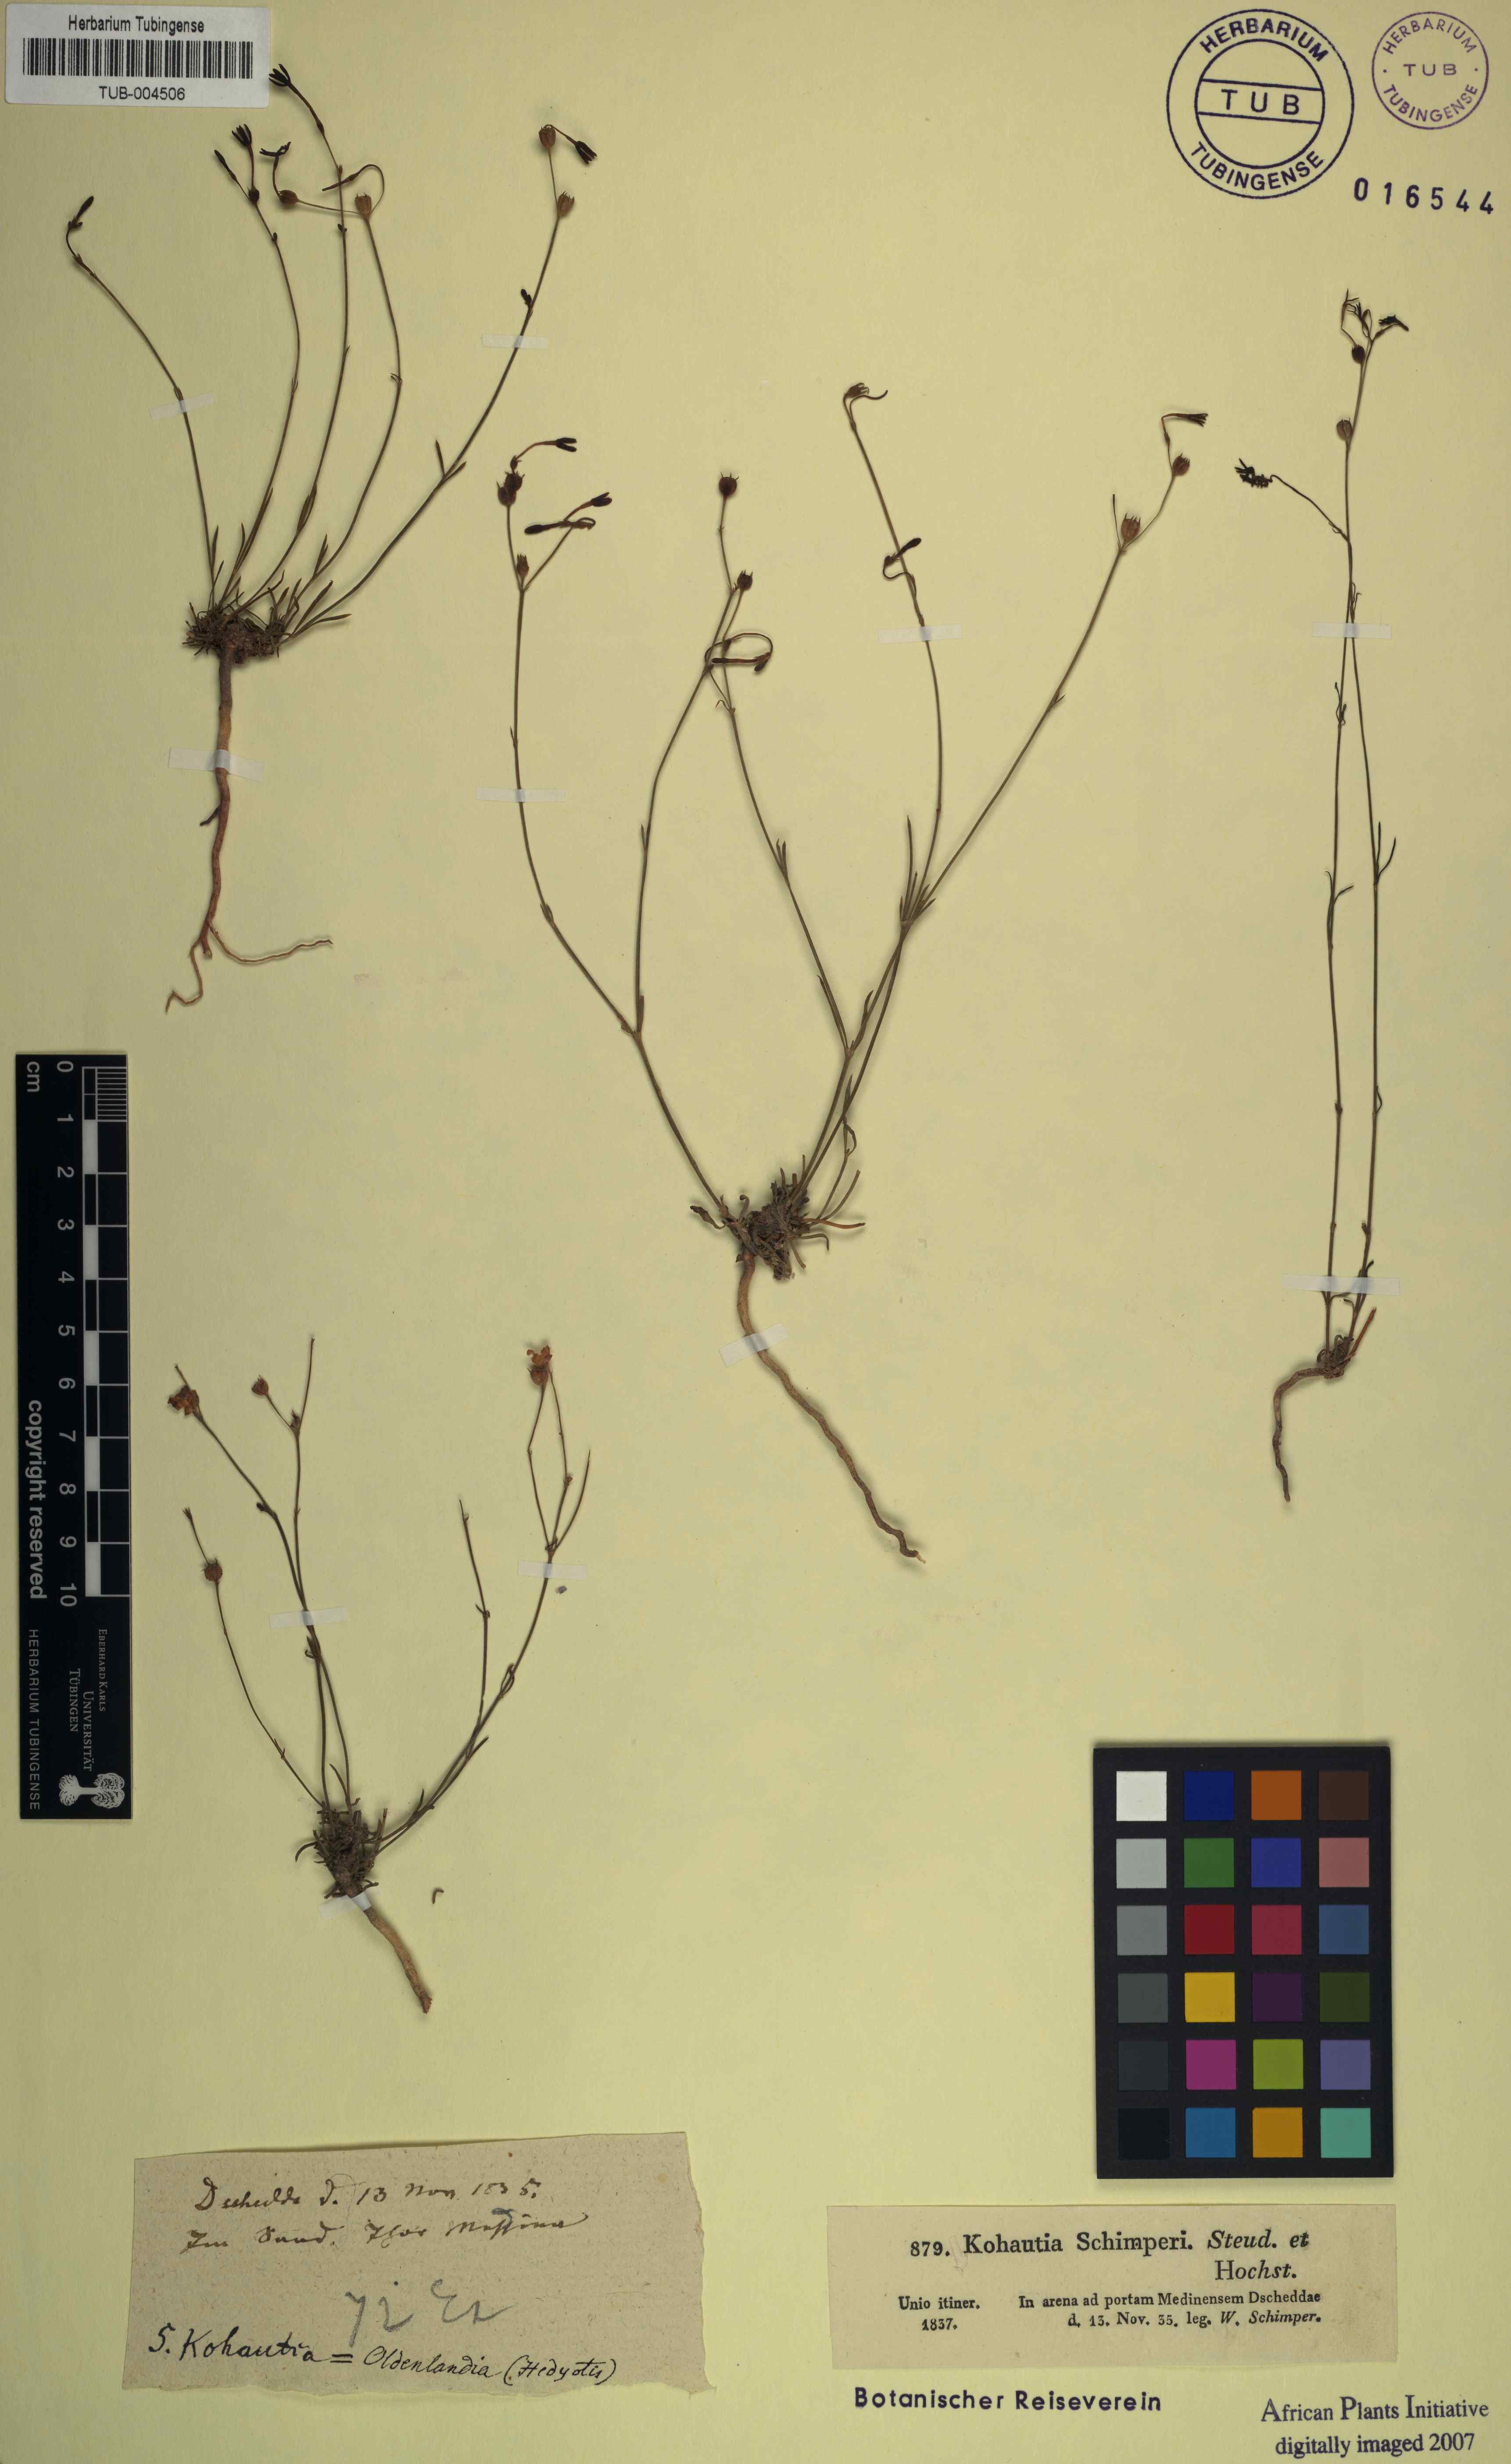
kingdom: Plantae
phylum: Tracheophyta
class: Magnoliopsida
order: Gentianales
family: Rubiaceae
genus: Kohautia
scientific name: Kohautia caespitosa
